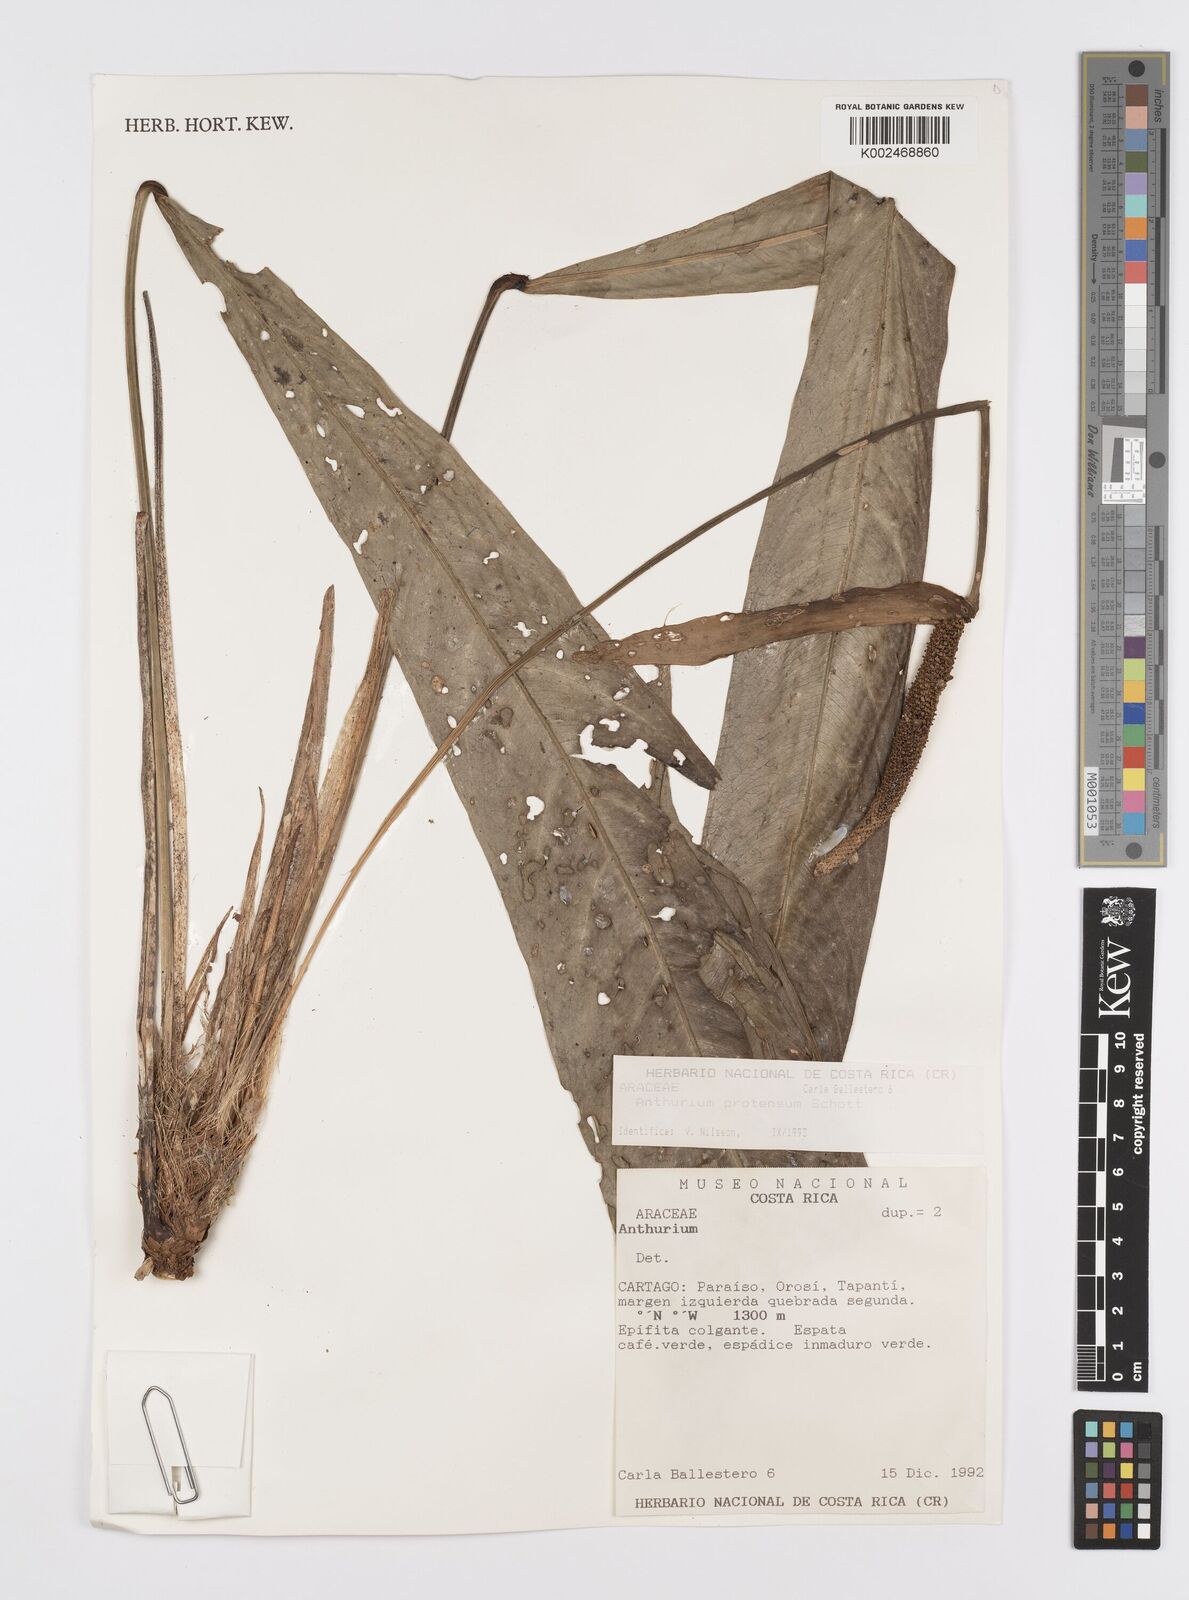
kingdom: Plantae
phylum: Tracheophyta
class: Liliopsida
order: Alismatales
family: Araceae
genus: Anthurium
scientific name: Anthurium protensum
